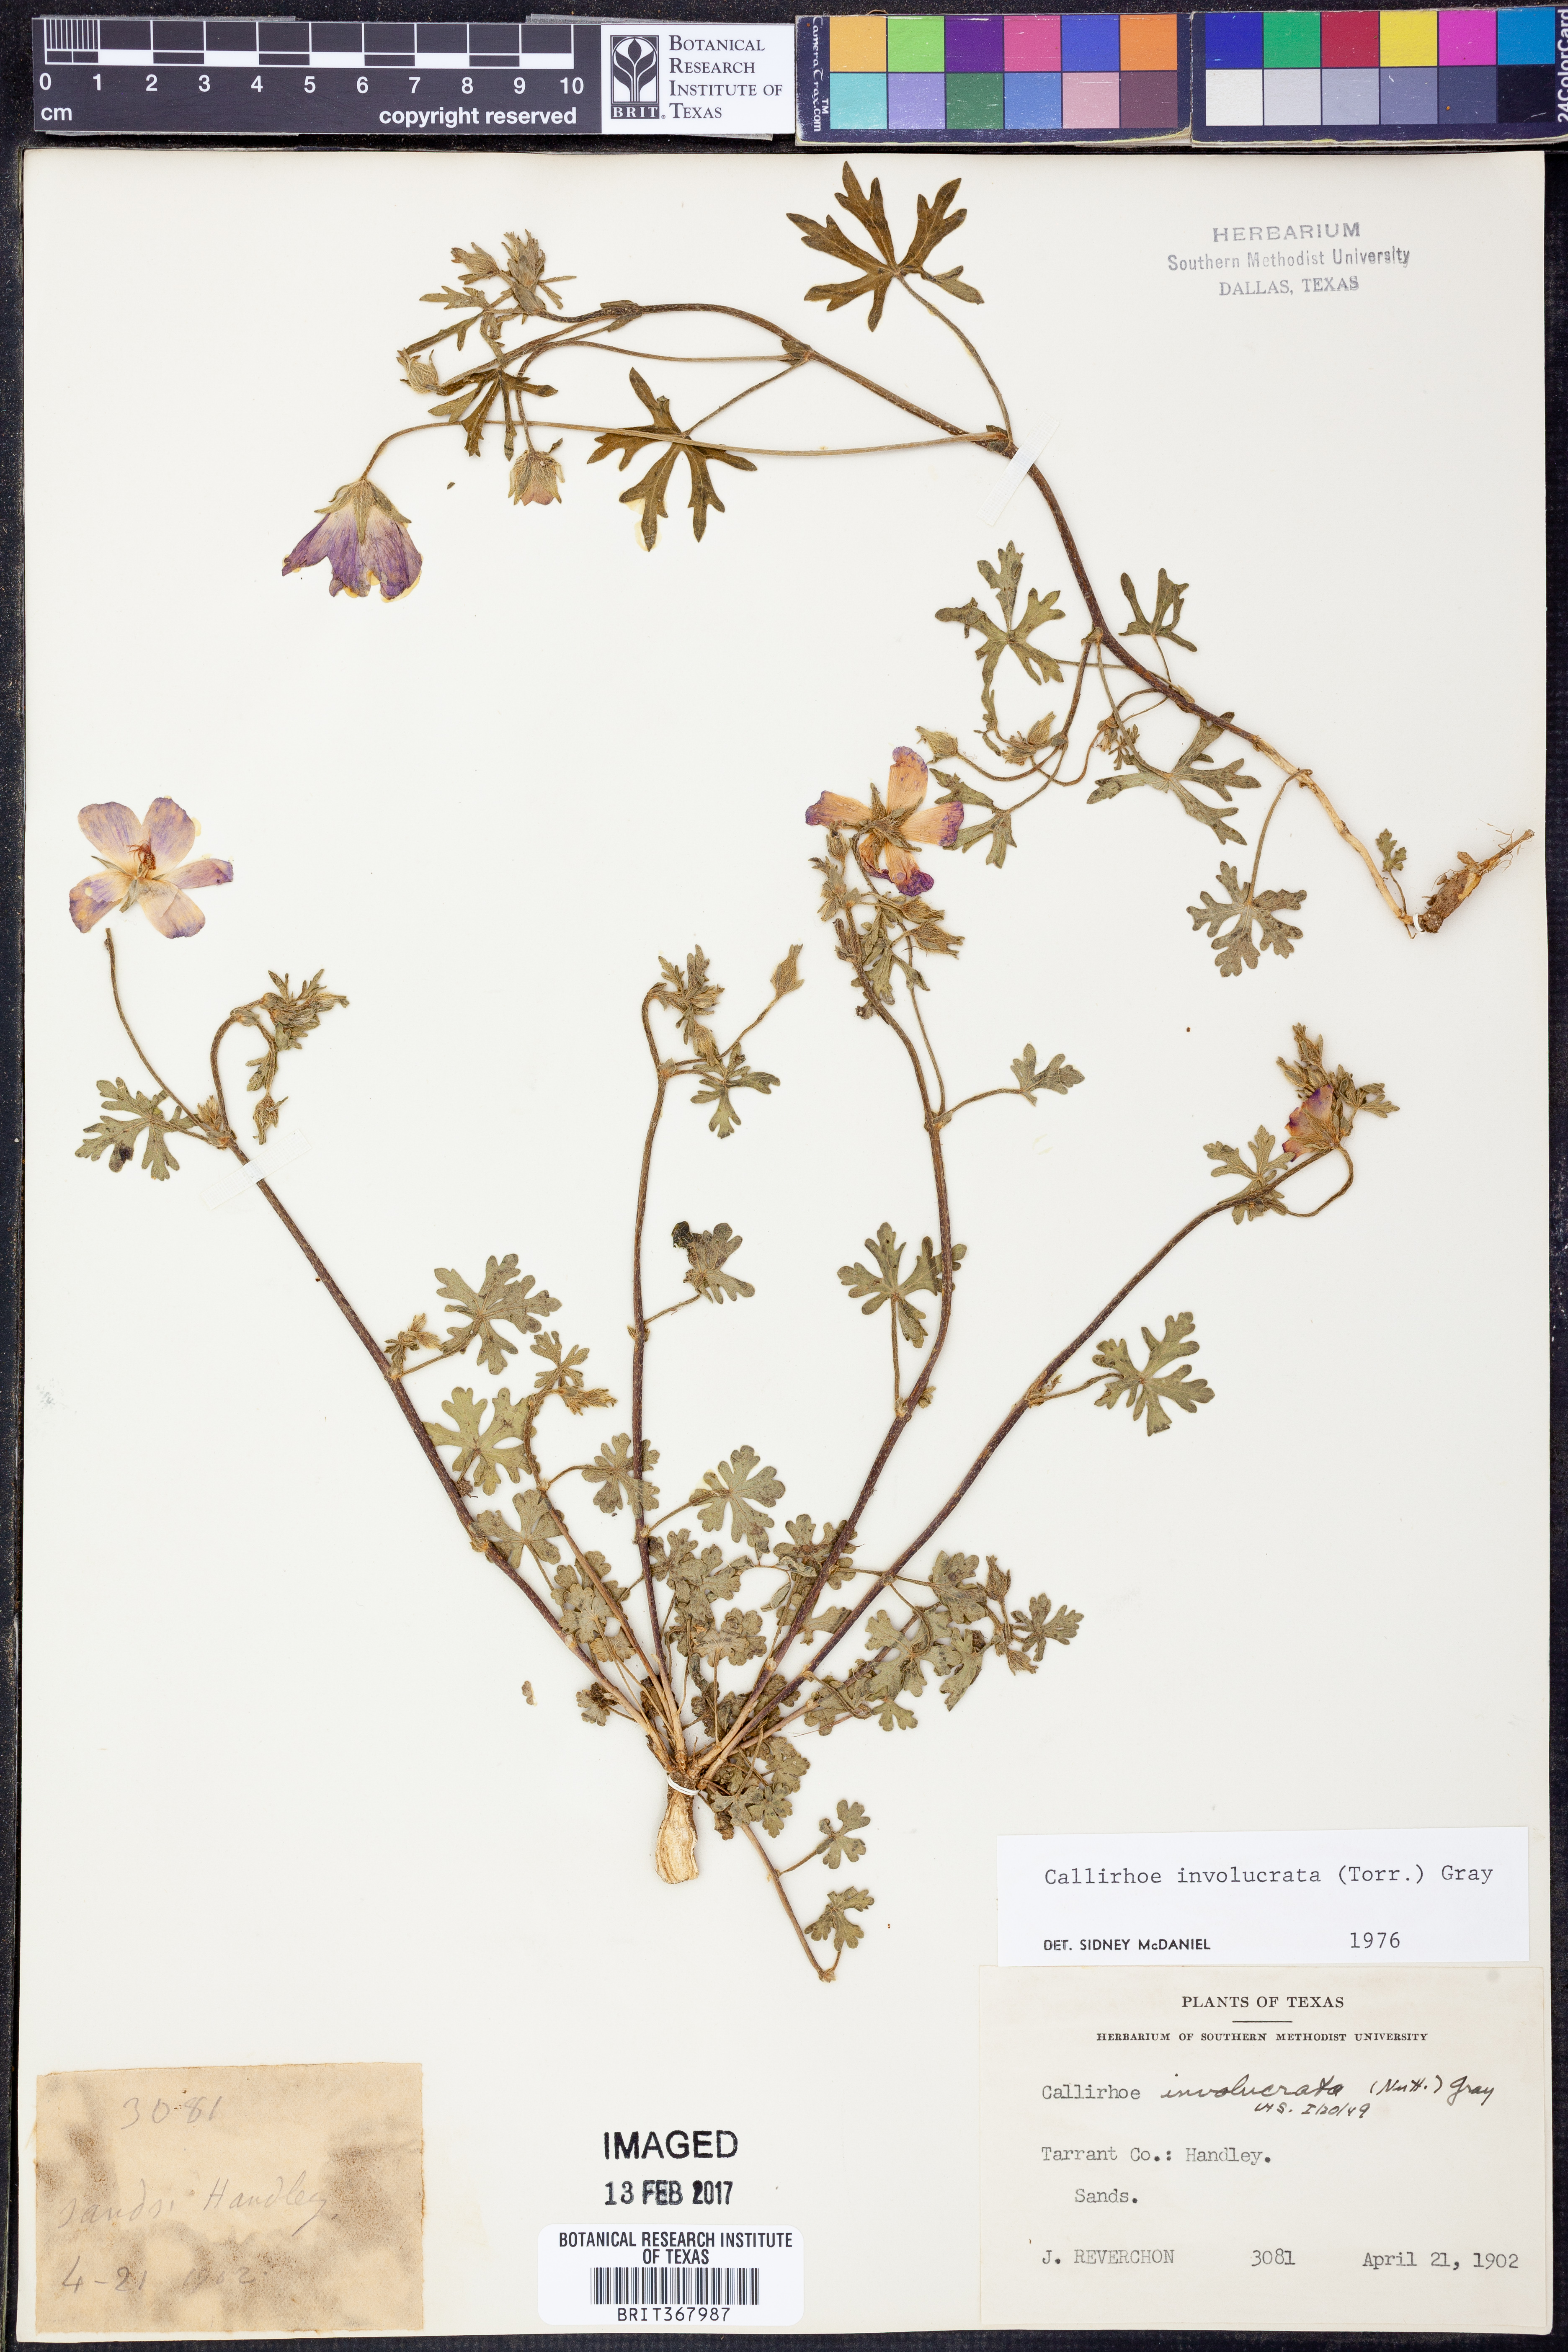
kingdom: Plantae
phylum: Tracheophyta
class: Magnoliopsida
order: Malvales
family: Malvaceae
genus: Callirhoe
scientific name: Callirhoe involucrata
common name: Purple poppy-mallow
